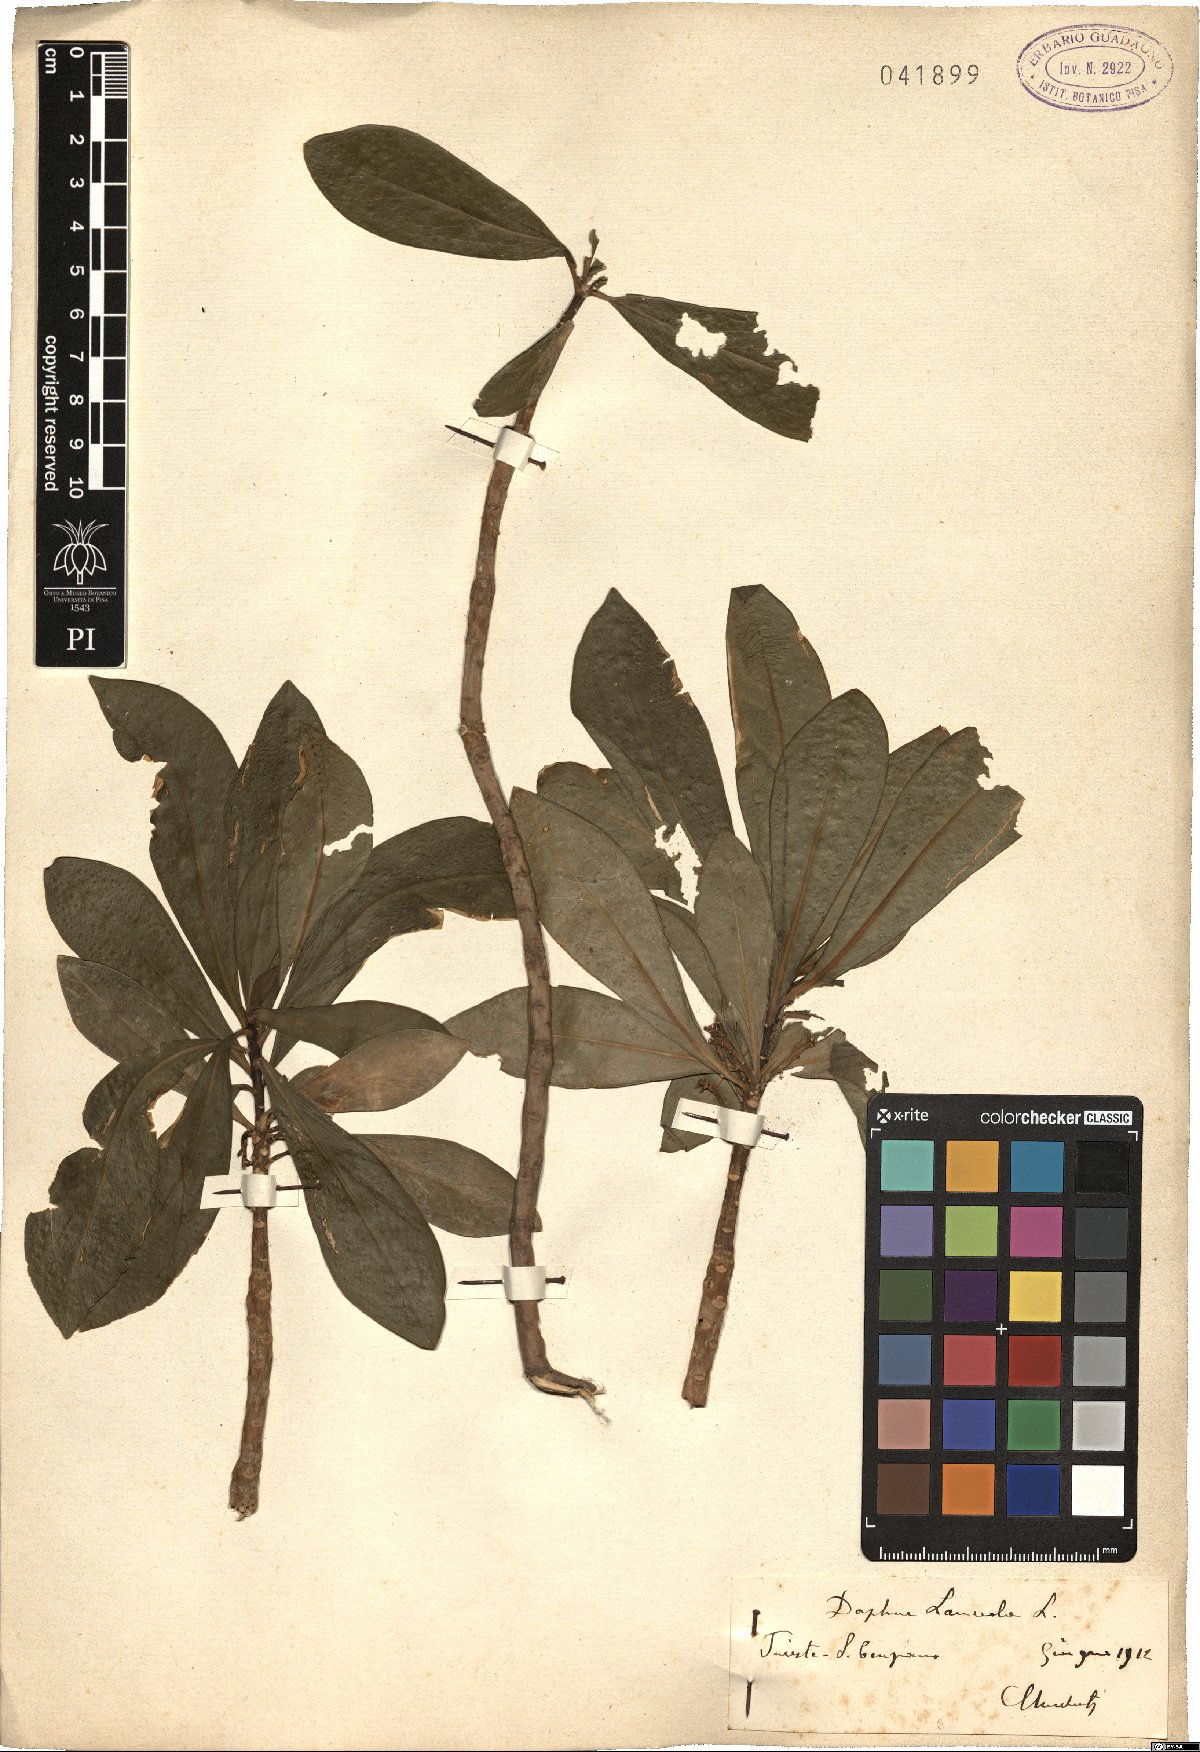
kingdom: Plantae
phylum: Tracheophyta
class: Magnoliopsida
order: Malvales
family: Thymelaeaceae
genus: Daphne
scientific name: Daphne laureola
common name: Spurge-laurel
